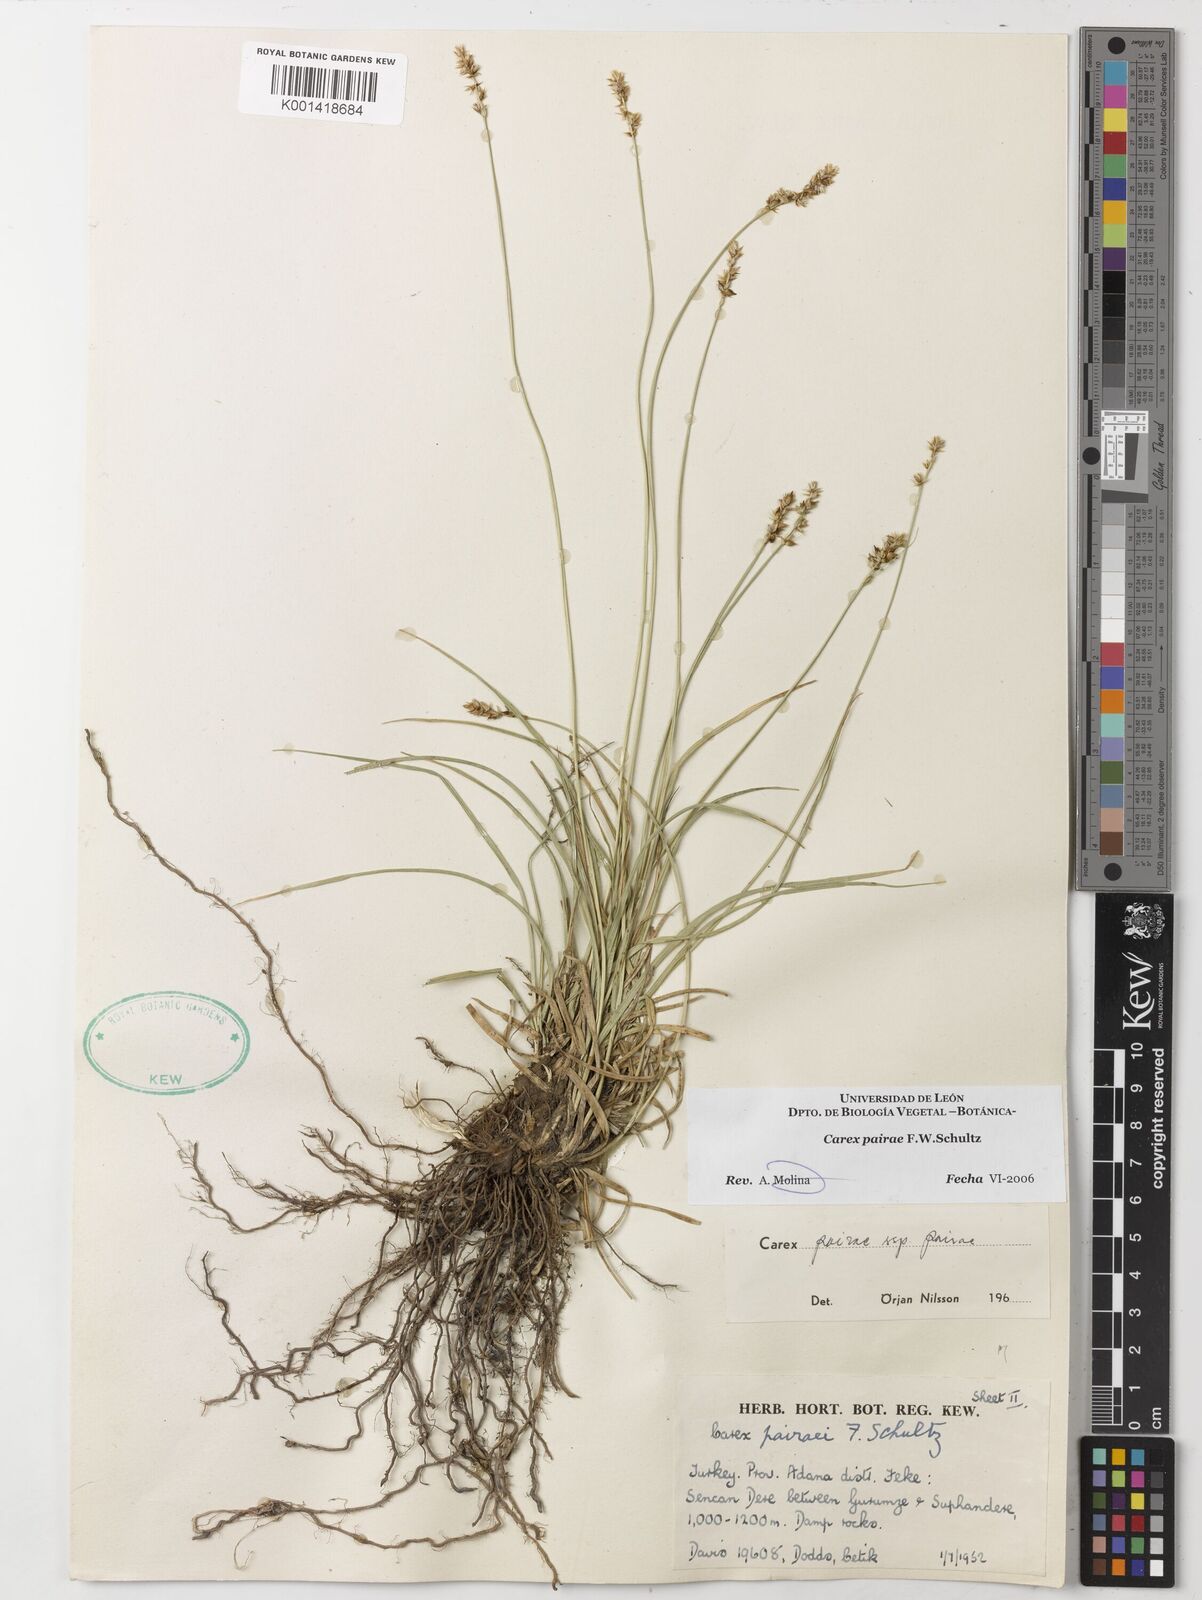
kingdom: Plantae
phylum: Tracheophyta
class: Liliopsida
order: Poales
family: Cyperaceae
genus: Carex
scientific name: Carex pairae
